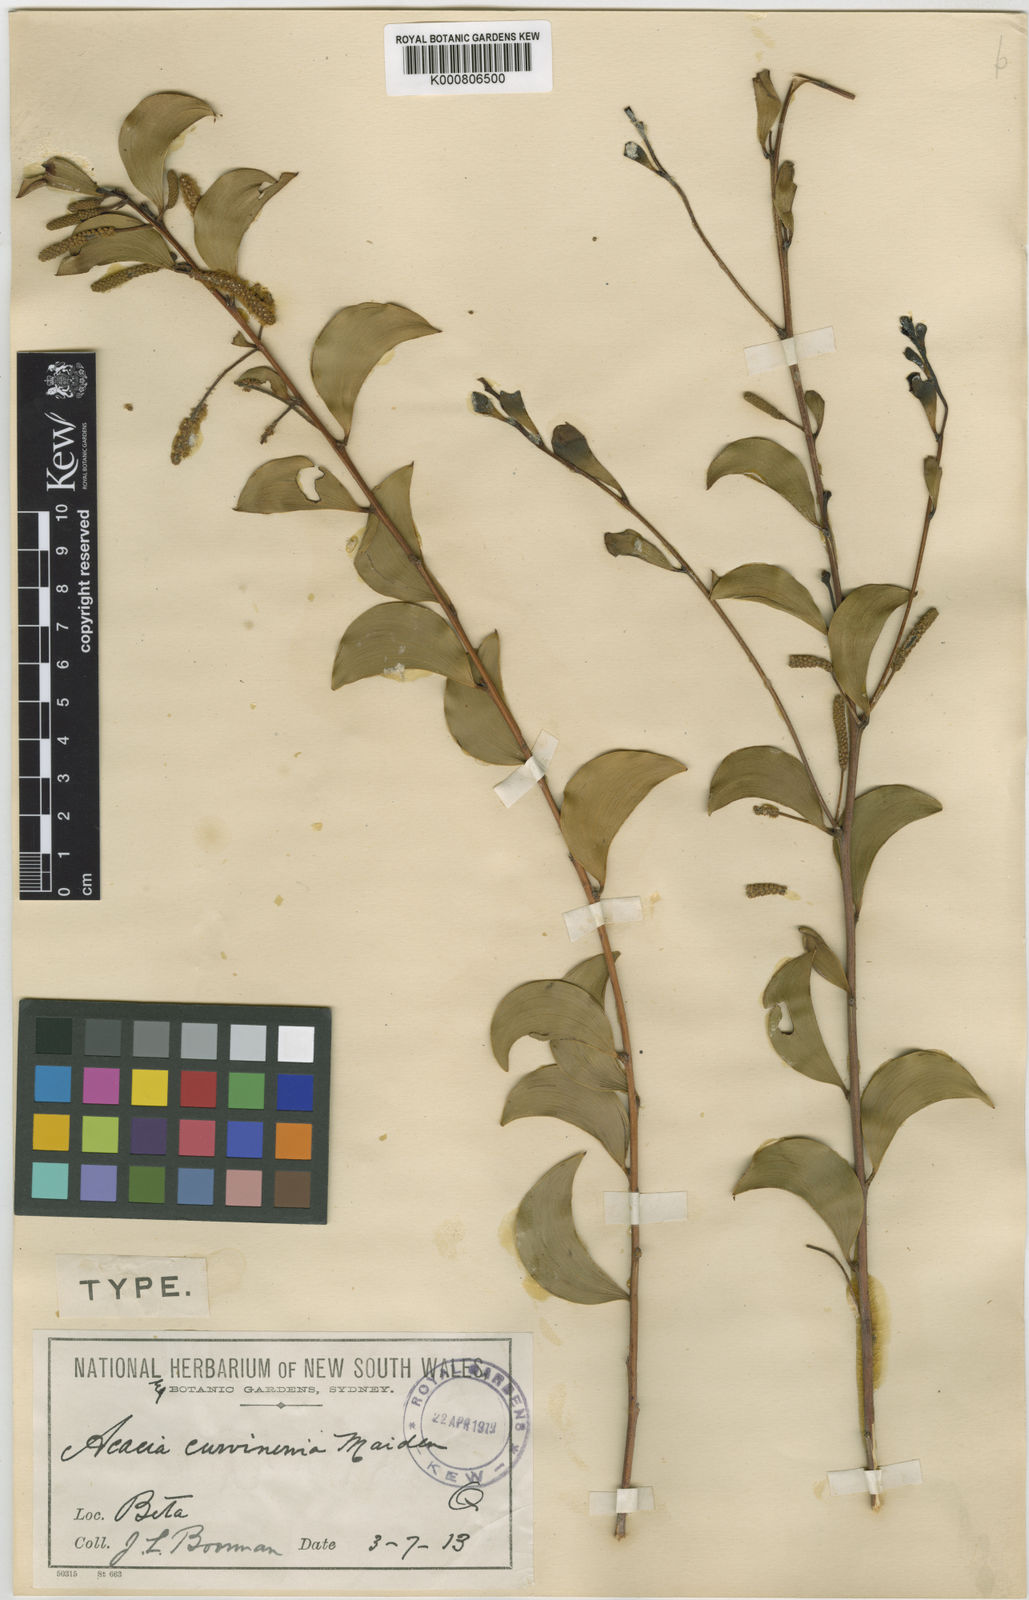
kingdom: Plantae
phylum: Tracheophyta
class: Magnoliopsida
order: Fabales
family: Fabaceae
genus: Acacia
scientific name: Acacia julifera
